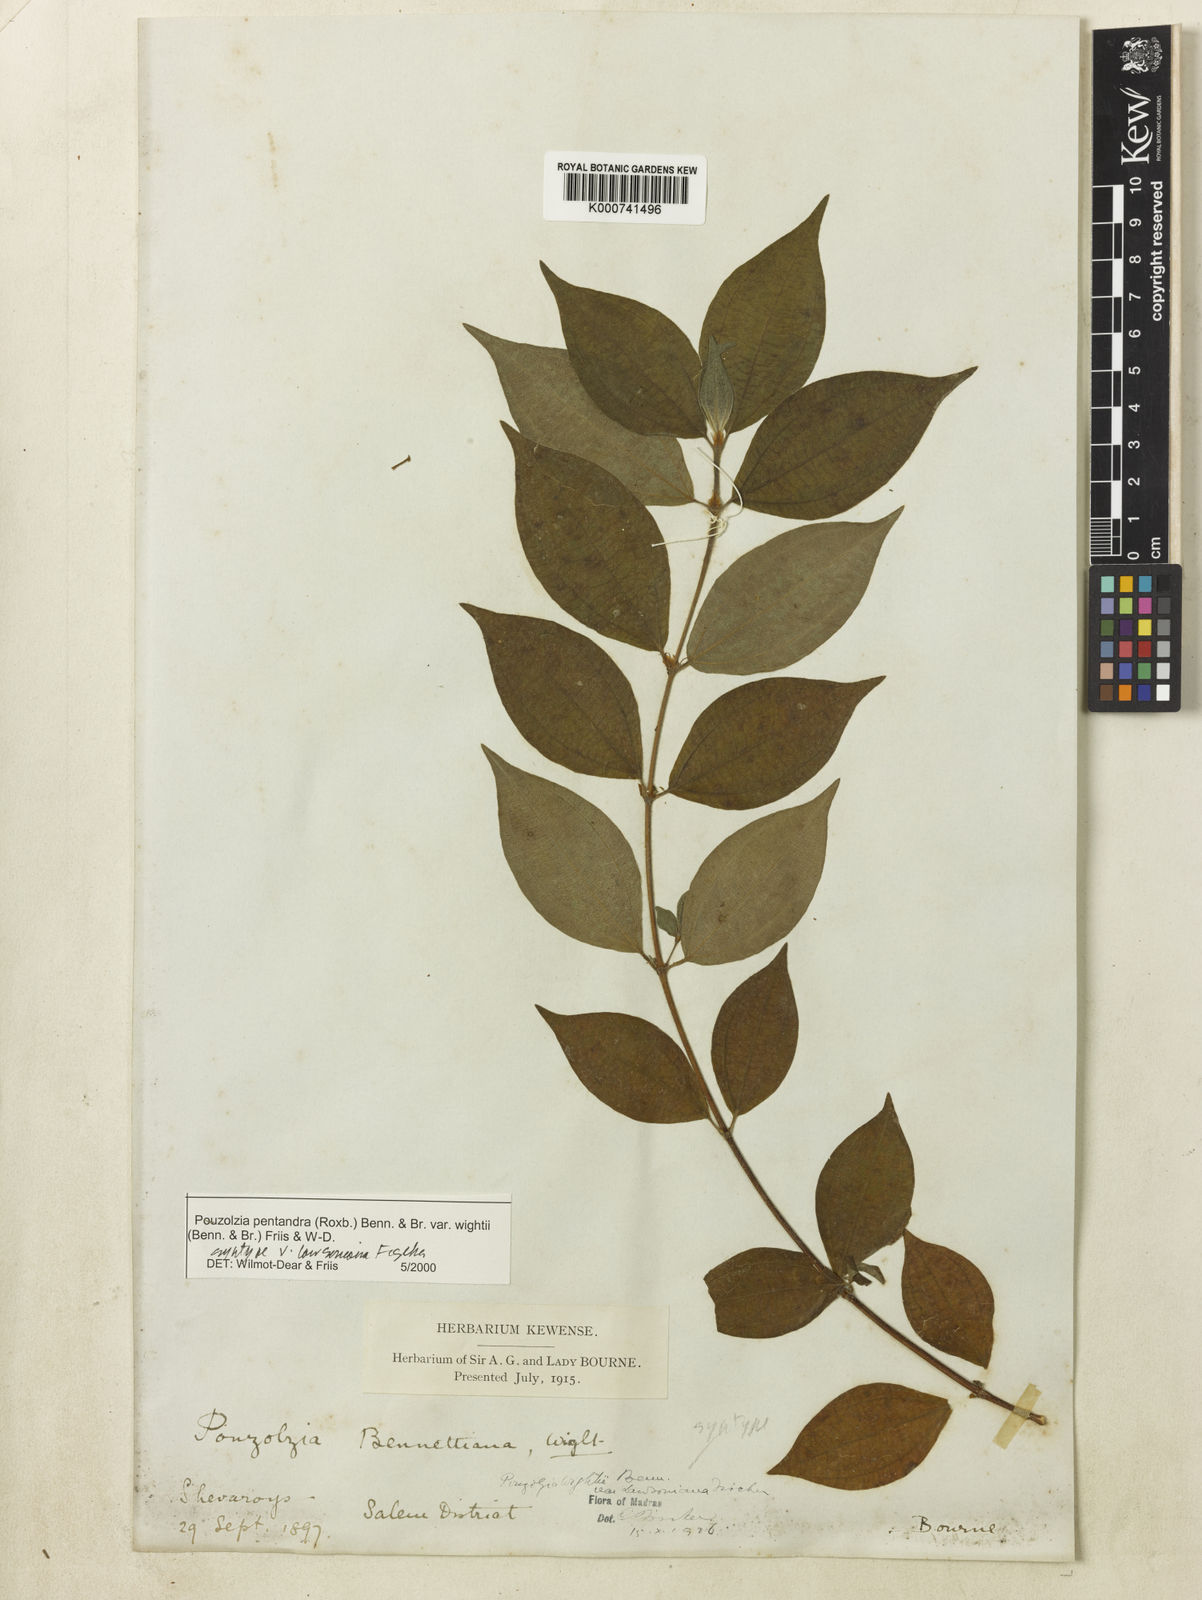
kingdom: Plantae
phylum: Tracheophyta
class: Magnoliopsida
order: Rosales
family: Urticaceae
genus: Gonostegia
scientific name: Gonostegia pentandra
